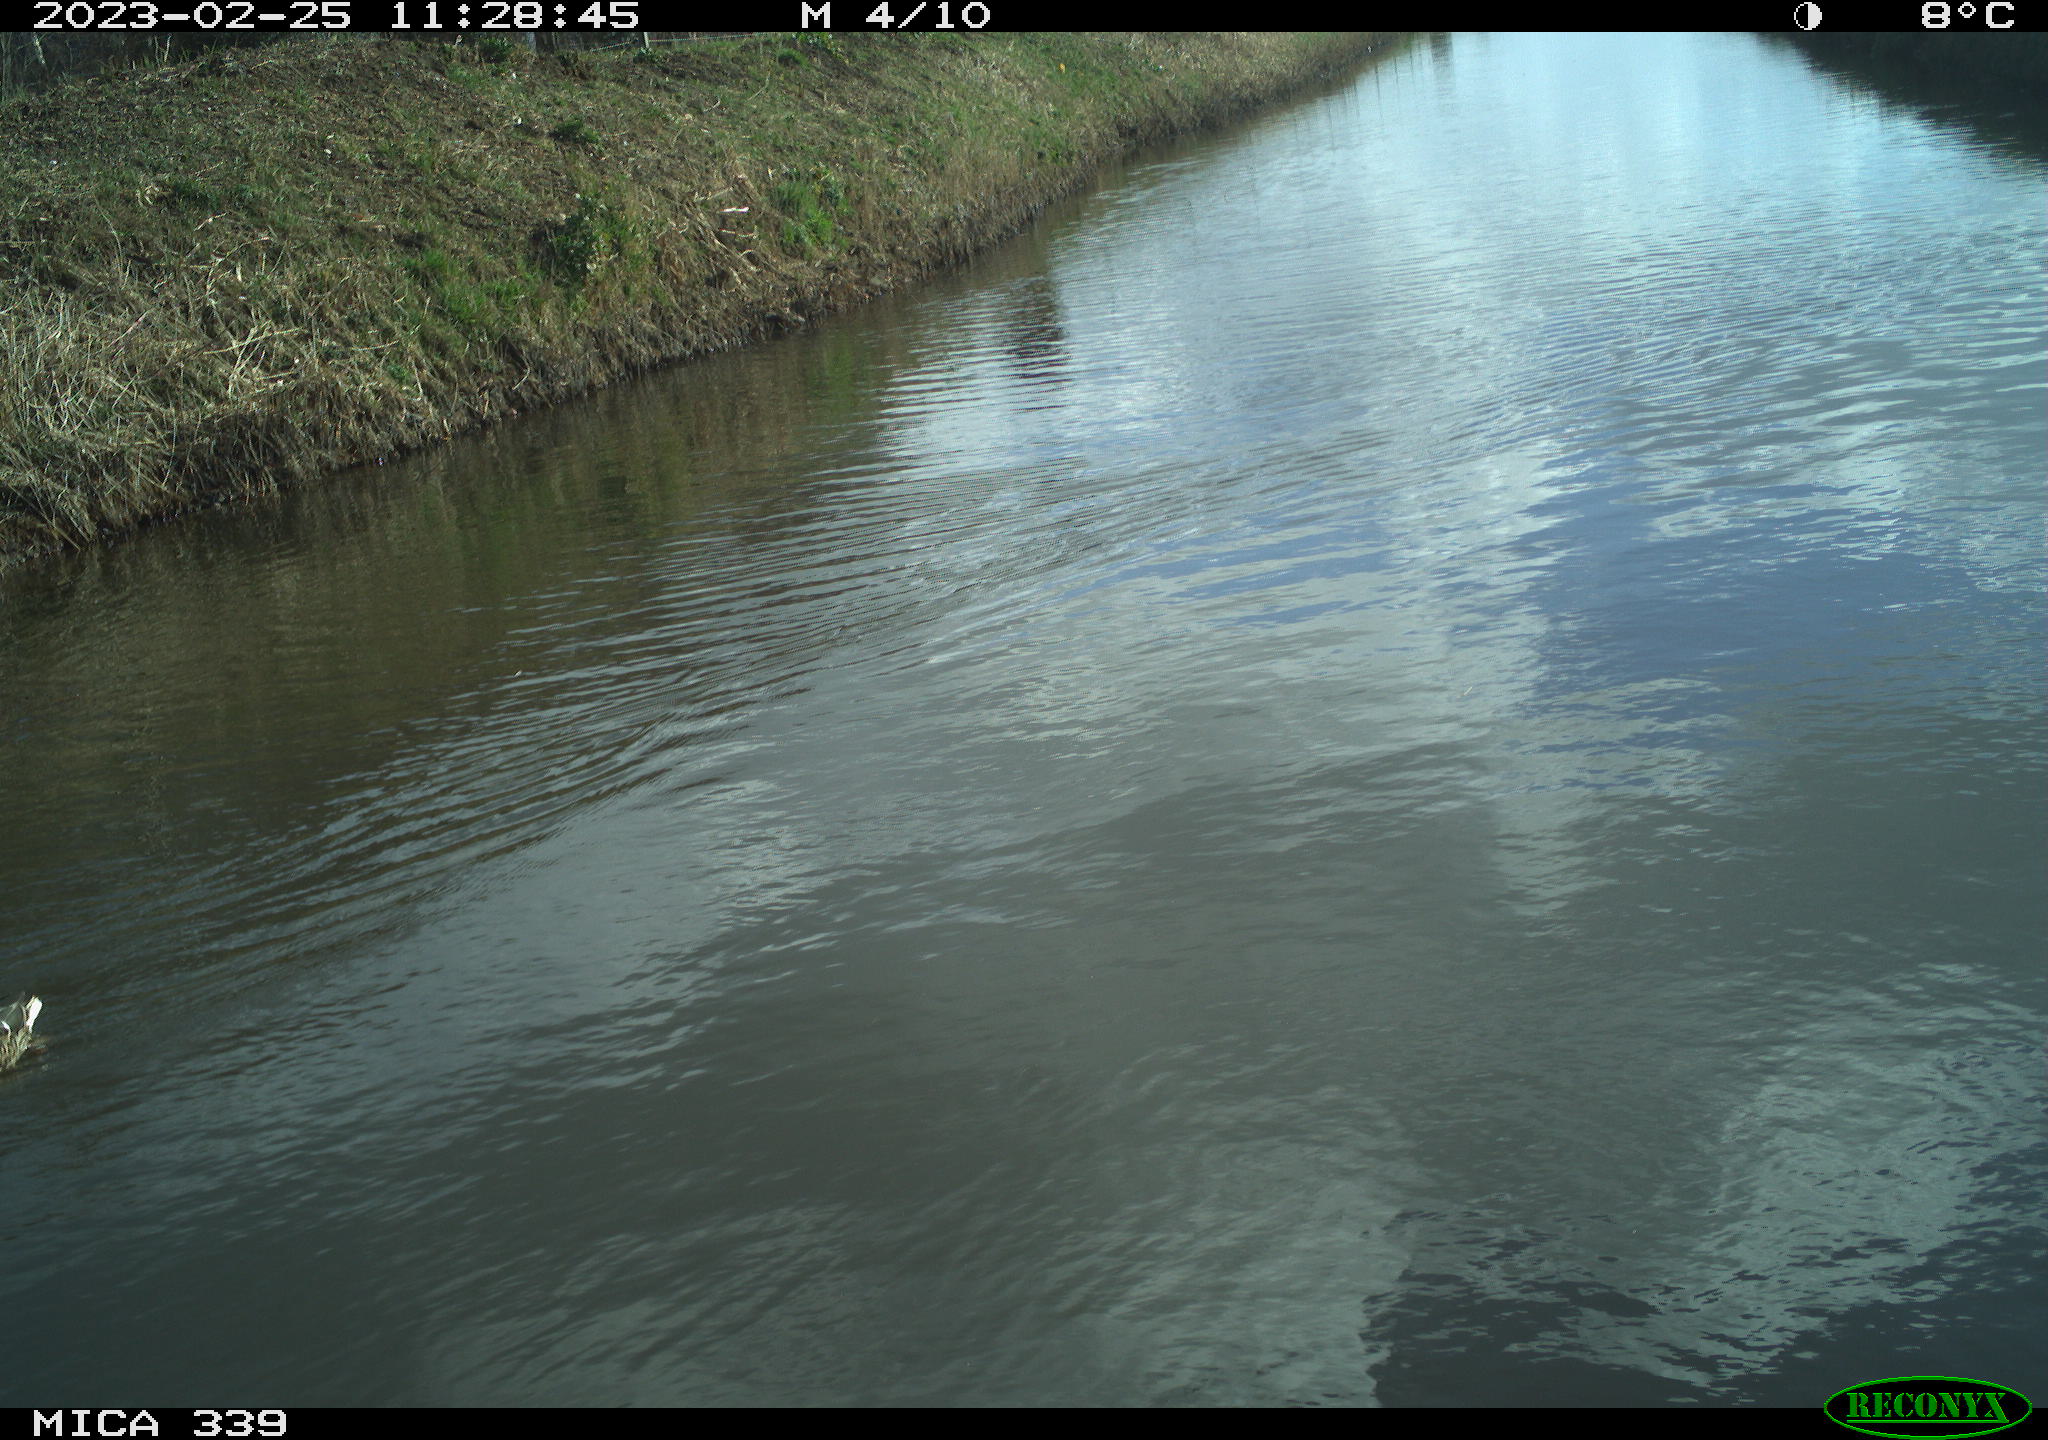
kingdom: Animalia
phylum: Chordata
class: Aves
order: Anseriformes
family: Anatidae
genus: Anas
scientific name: Anas
